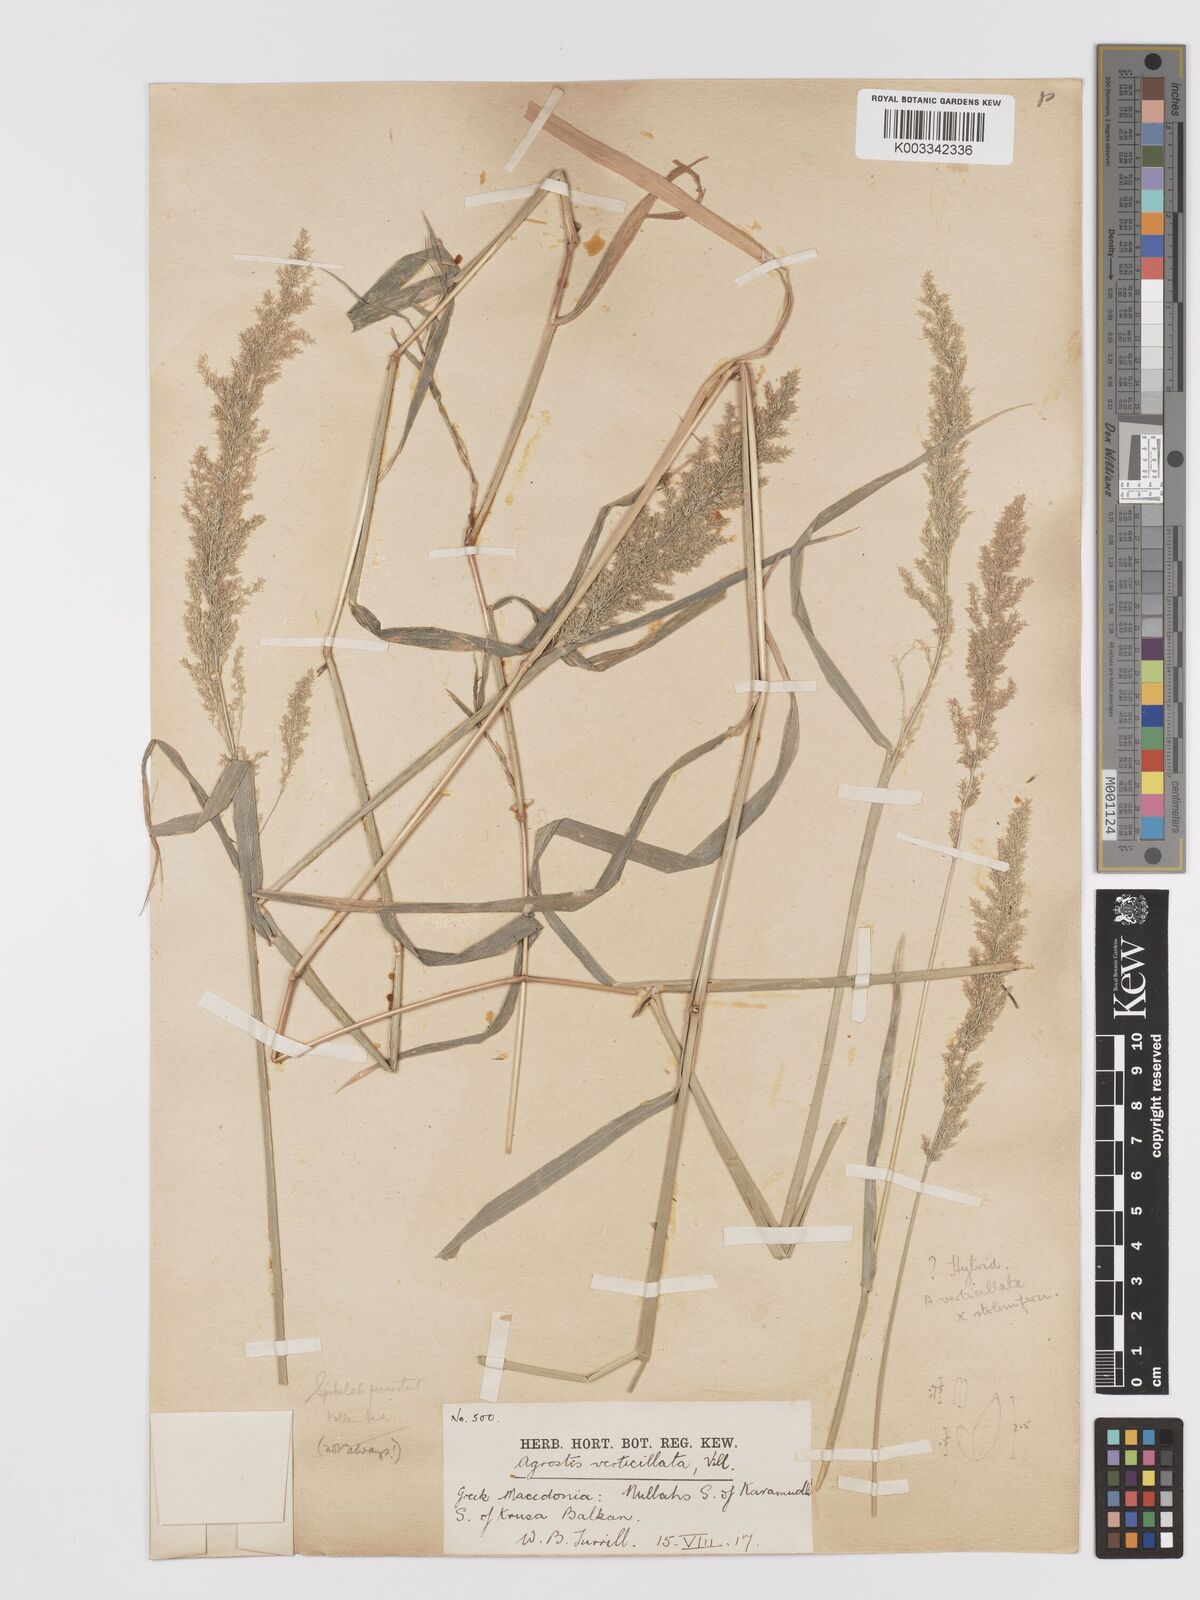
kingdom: Plantae
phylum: Tracheophyta
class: Liliopsida
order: Poales
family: Poaceae
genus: Agrostis
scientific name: Agrostis stolonifera
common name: Creeping bentgrass
